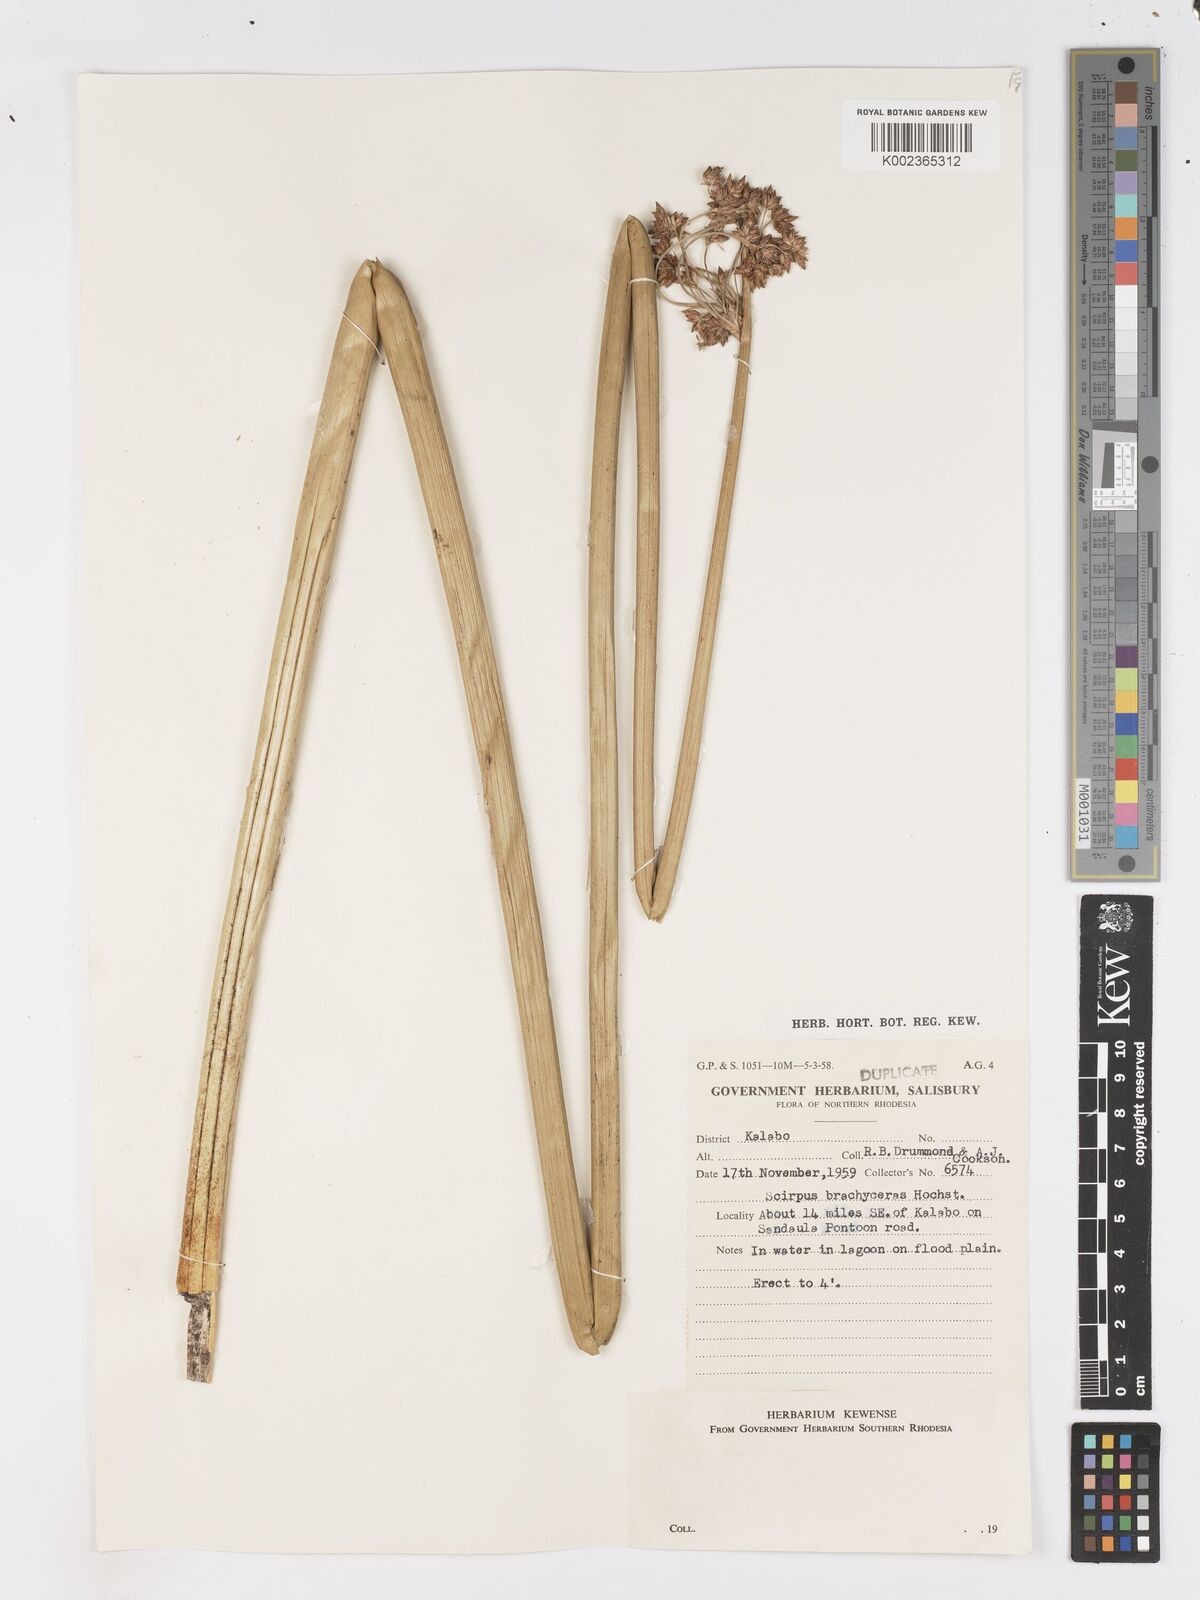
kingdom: Plantae
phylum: Tracheophyta
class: Liliopsida
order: Poales
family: Cyperaceae
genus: Schoenoplectus
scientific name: Schoenoplectus
